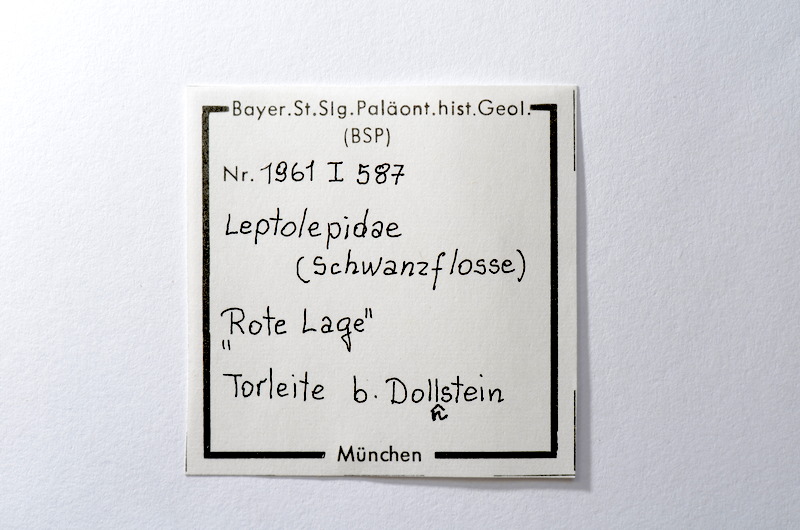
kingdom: Animalia
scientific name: Animalia
